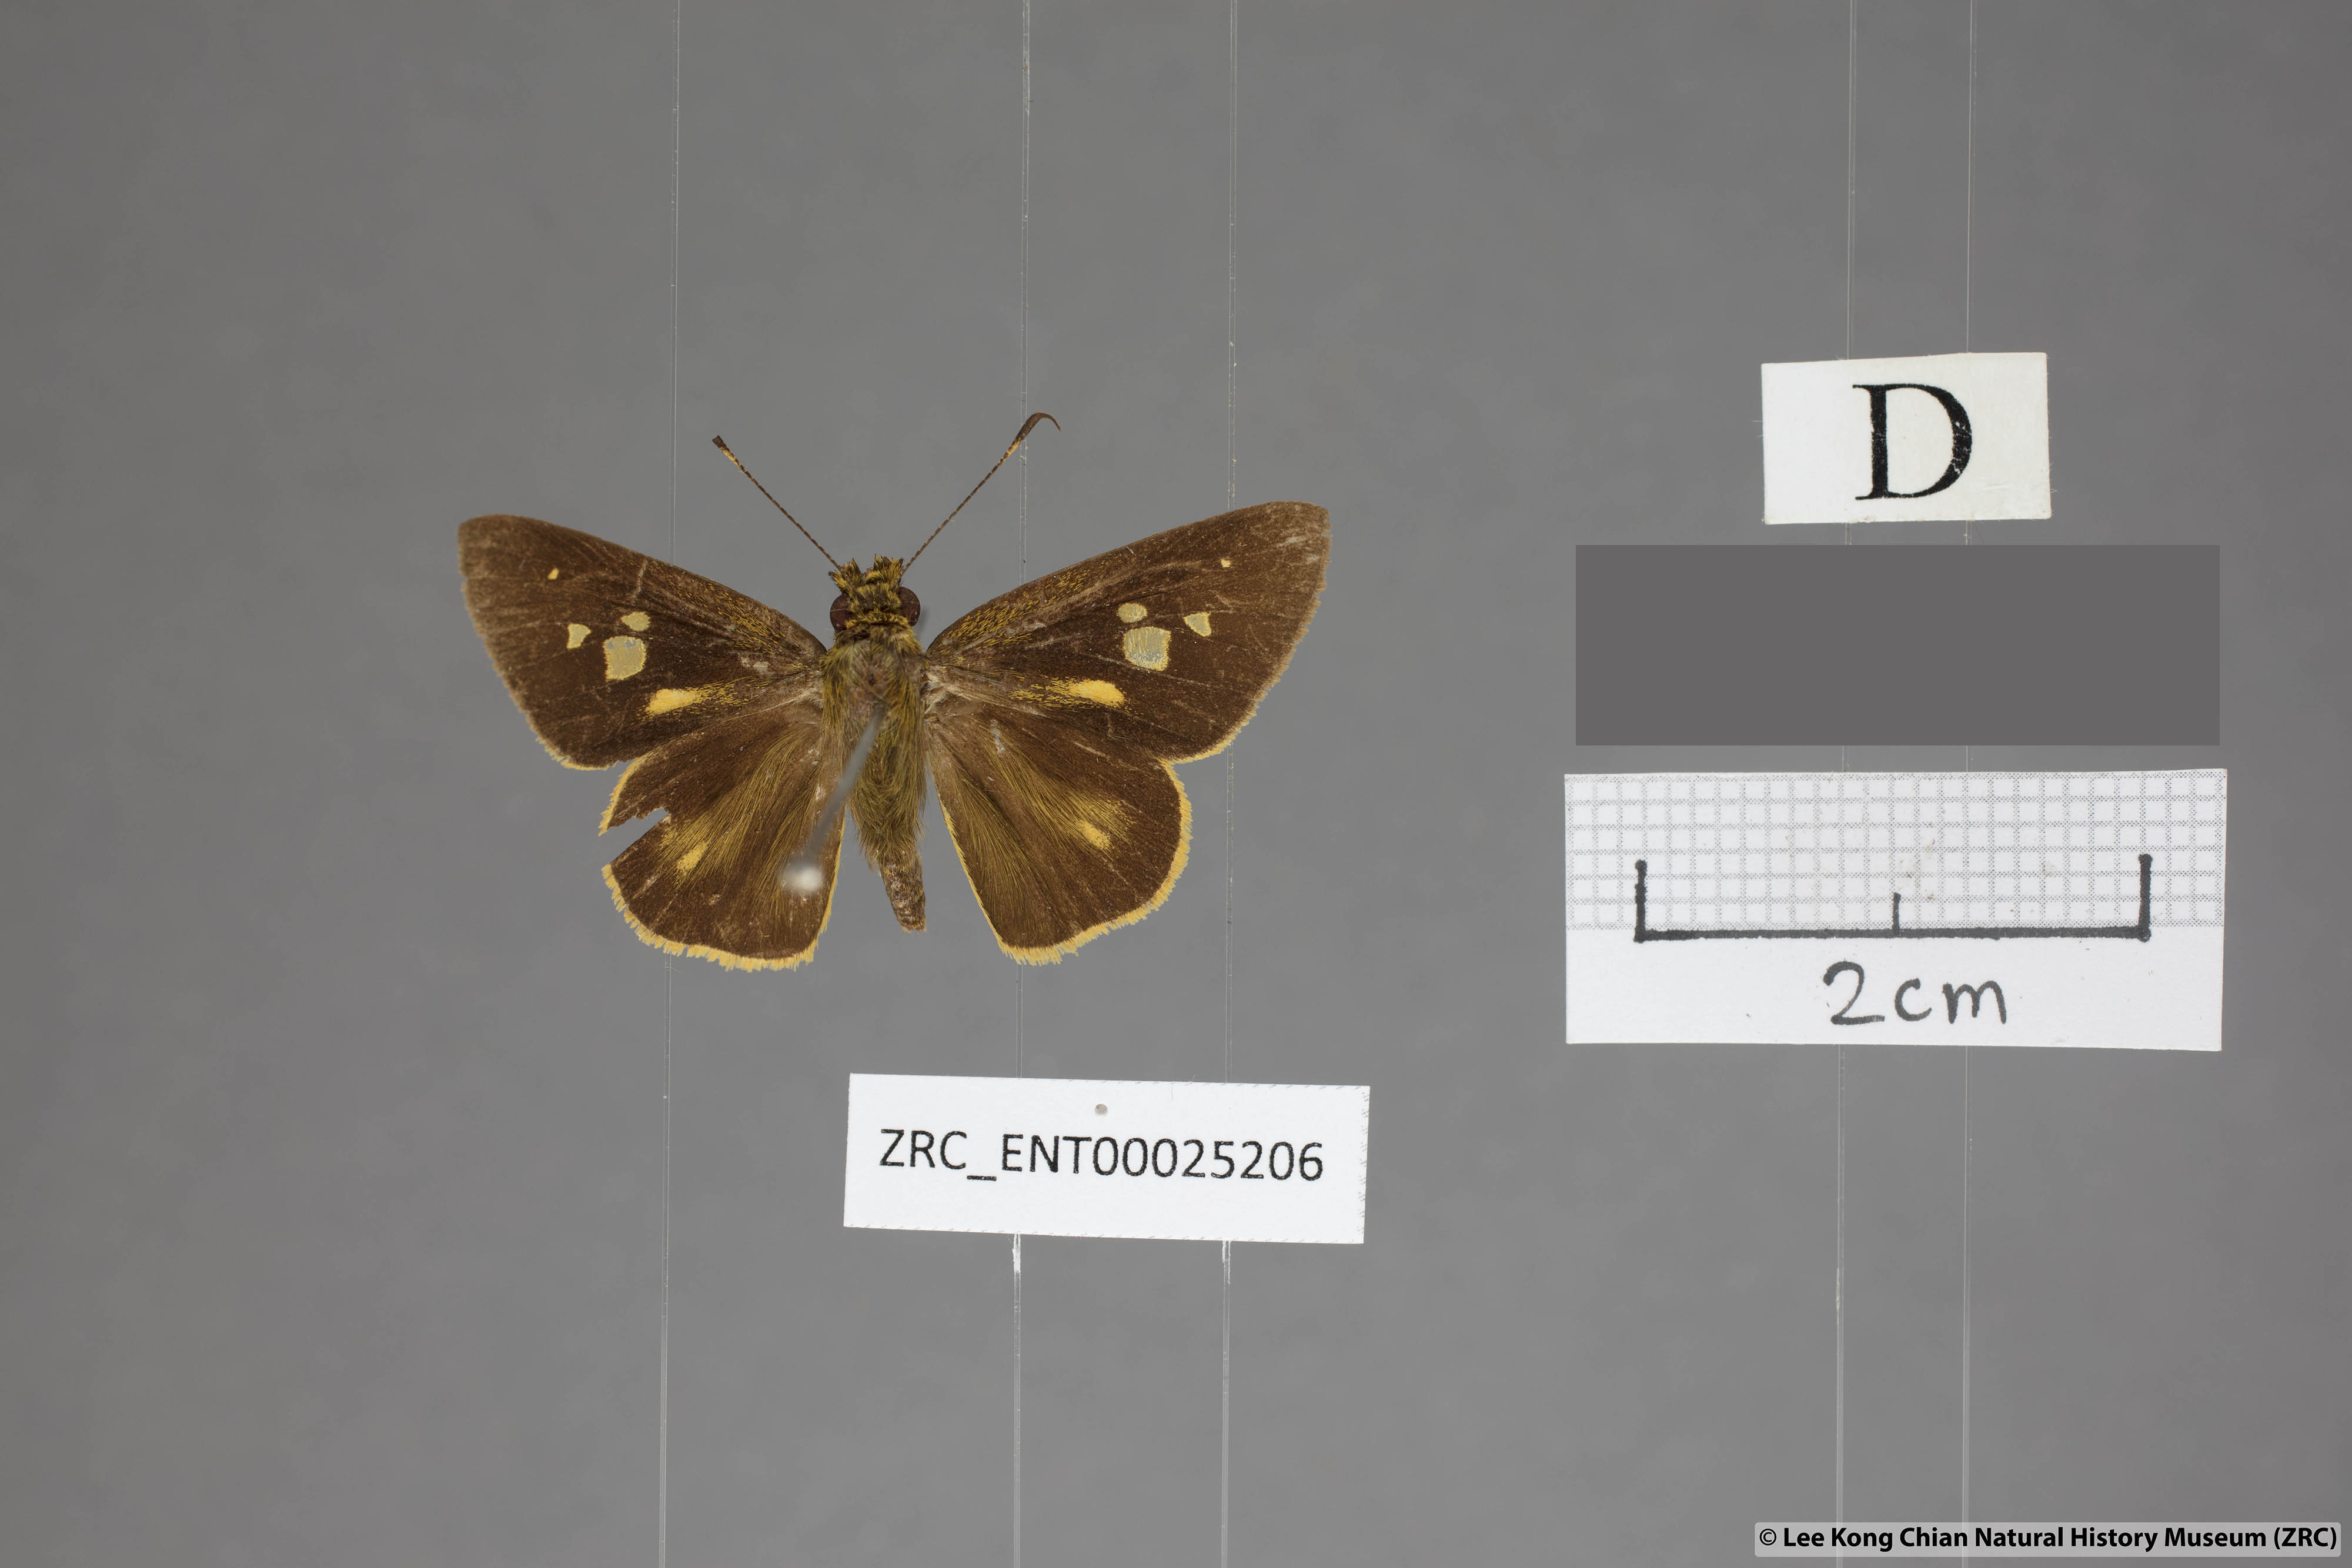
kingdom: Animalia
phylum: Arthropoda
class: Insecta
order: Lepidoptera
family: Hesperiidae
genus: Xanthoneura
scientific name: Xanthoneura corissa
